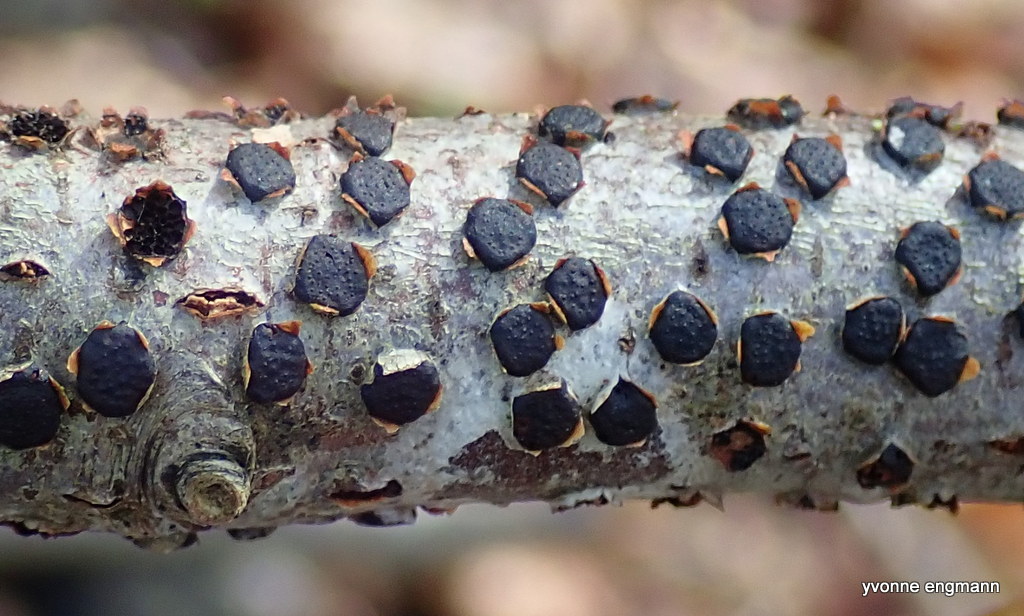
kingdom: Fungi
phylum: Ascomycota
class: Sordariomycetes
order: Xylariales
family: Diatrypaceae
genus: Diatrype
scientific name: Diatrype disciformis
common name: kant-kulskorpe
